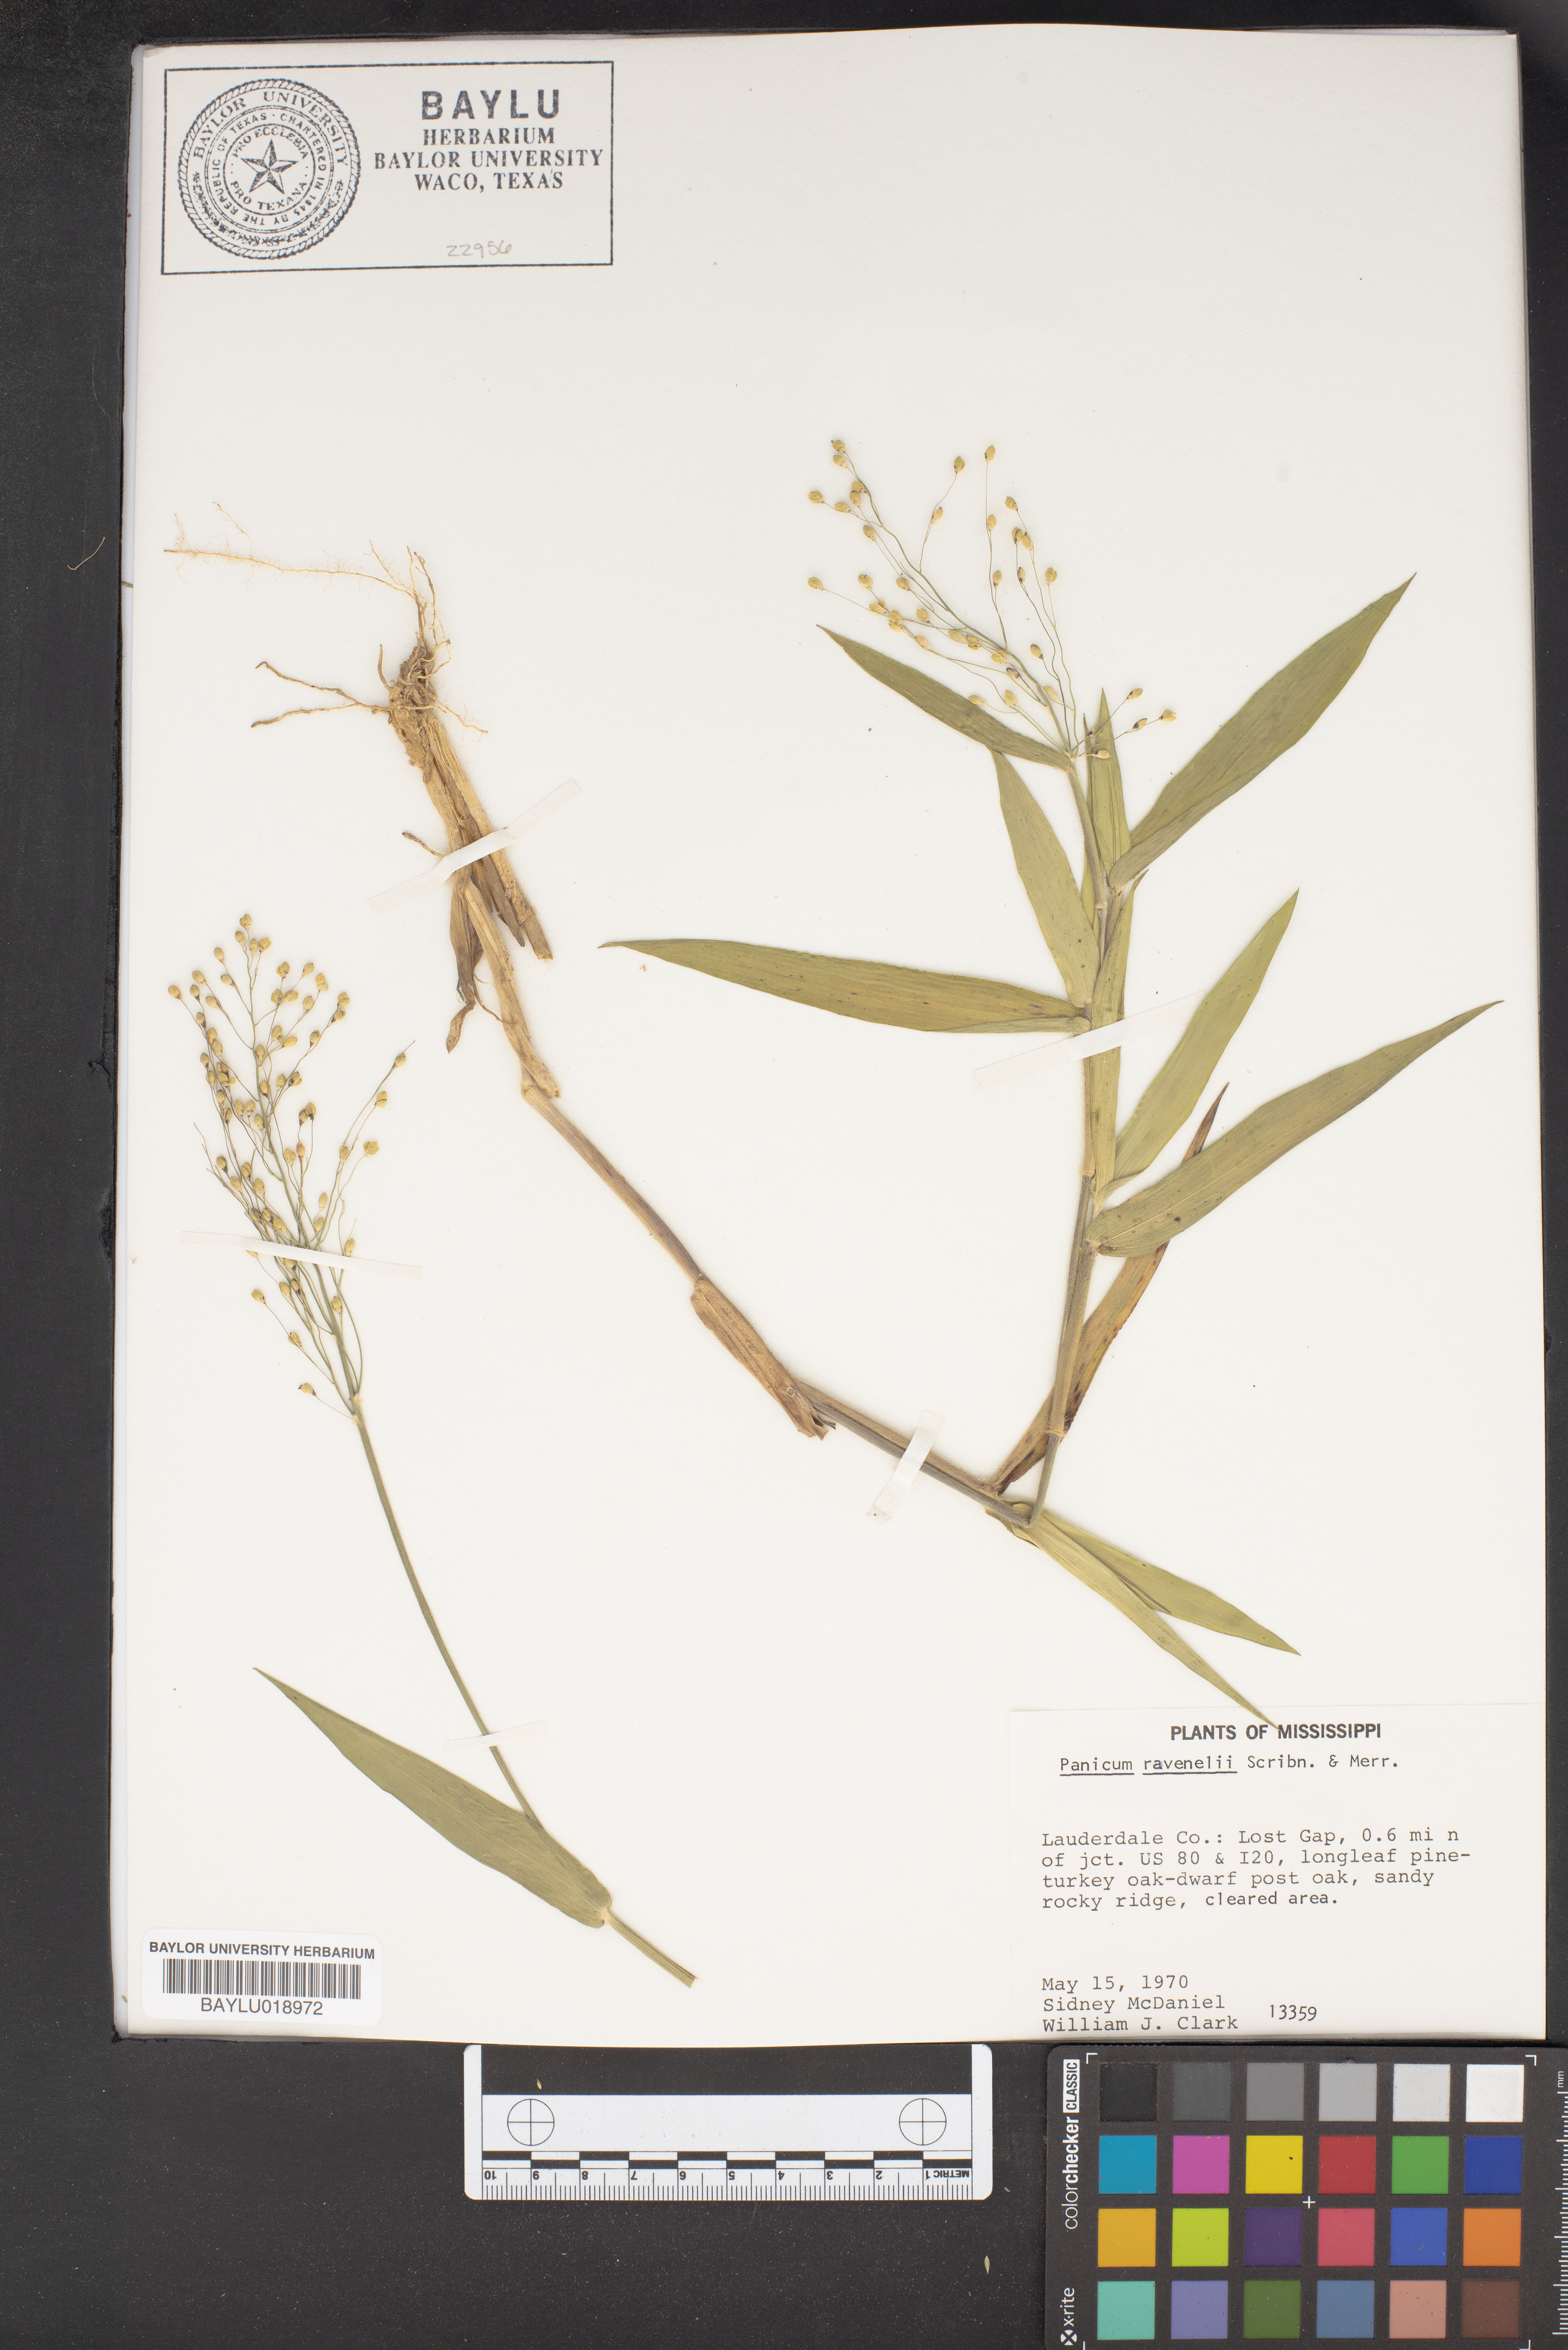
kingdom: Plantae
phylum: Tracheophyta
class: Liliopsida
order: Poales
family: Poaceae
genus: Dichanthelium
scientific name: Dichanthelium ravenelii
